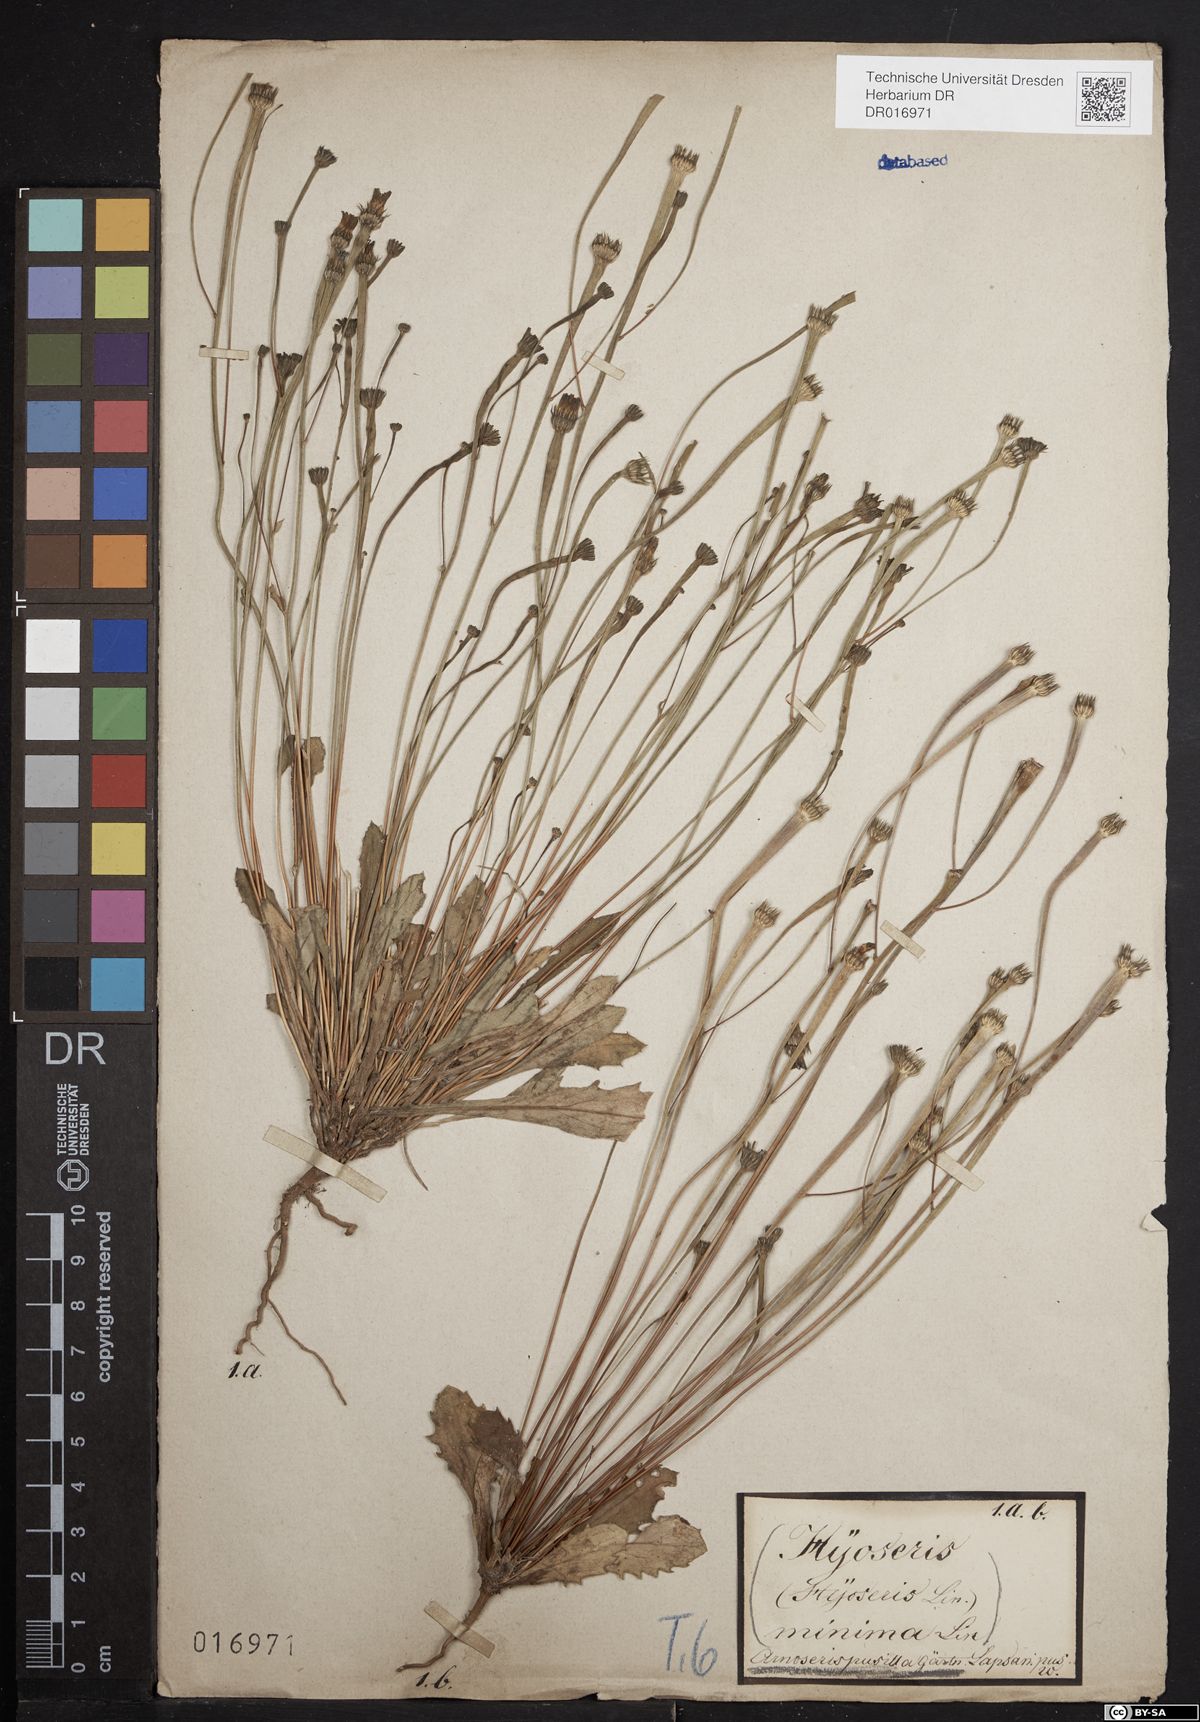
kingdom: Plantae
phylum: Tracheophyta
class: Magnoliopsida
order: Asterales
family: Asteraceae
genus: Arnoseris
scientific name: Arnoseris minima
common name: Lamb's succory
